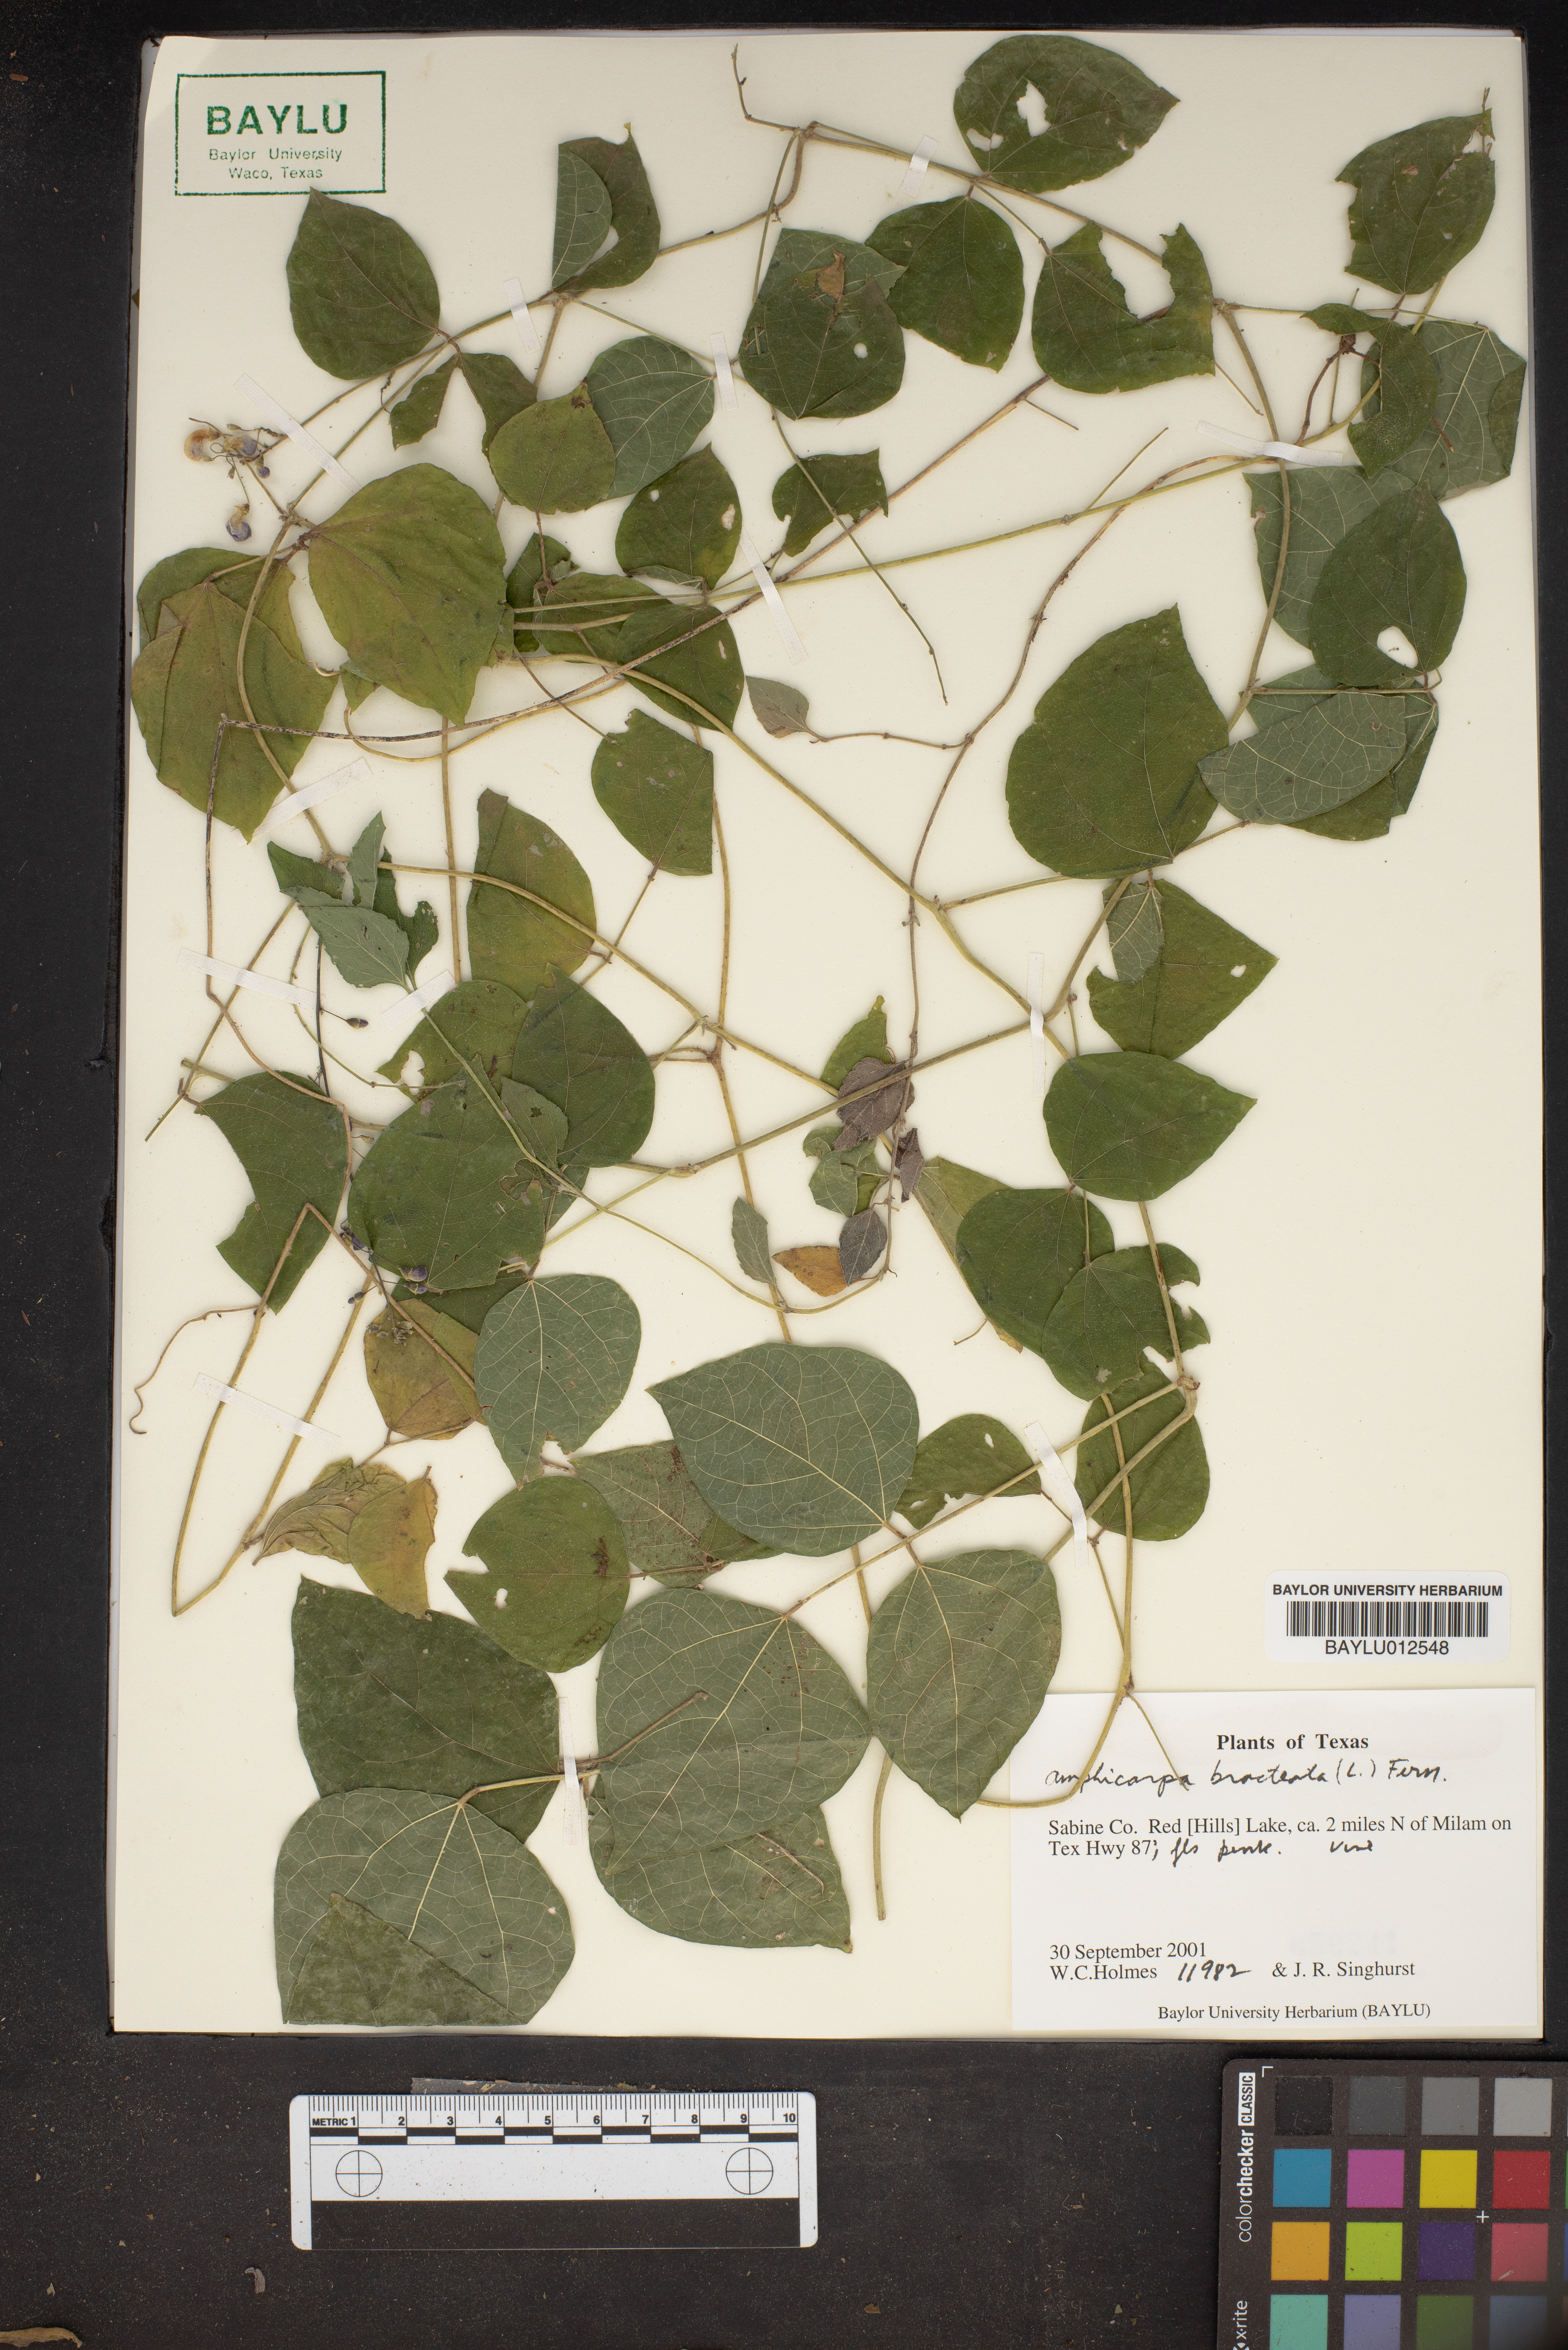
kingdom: Plantae
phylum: Tracheophyta
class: Magnoliopsida
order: Fabales
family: Fabaceae
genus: Amphicarpaea
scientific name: Amphicarpaea bracteata
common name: American hog peanut
